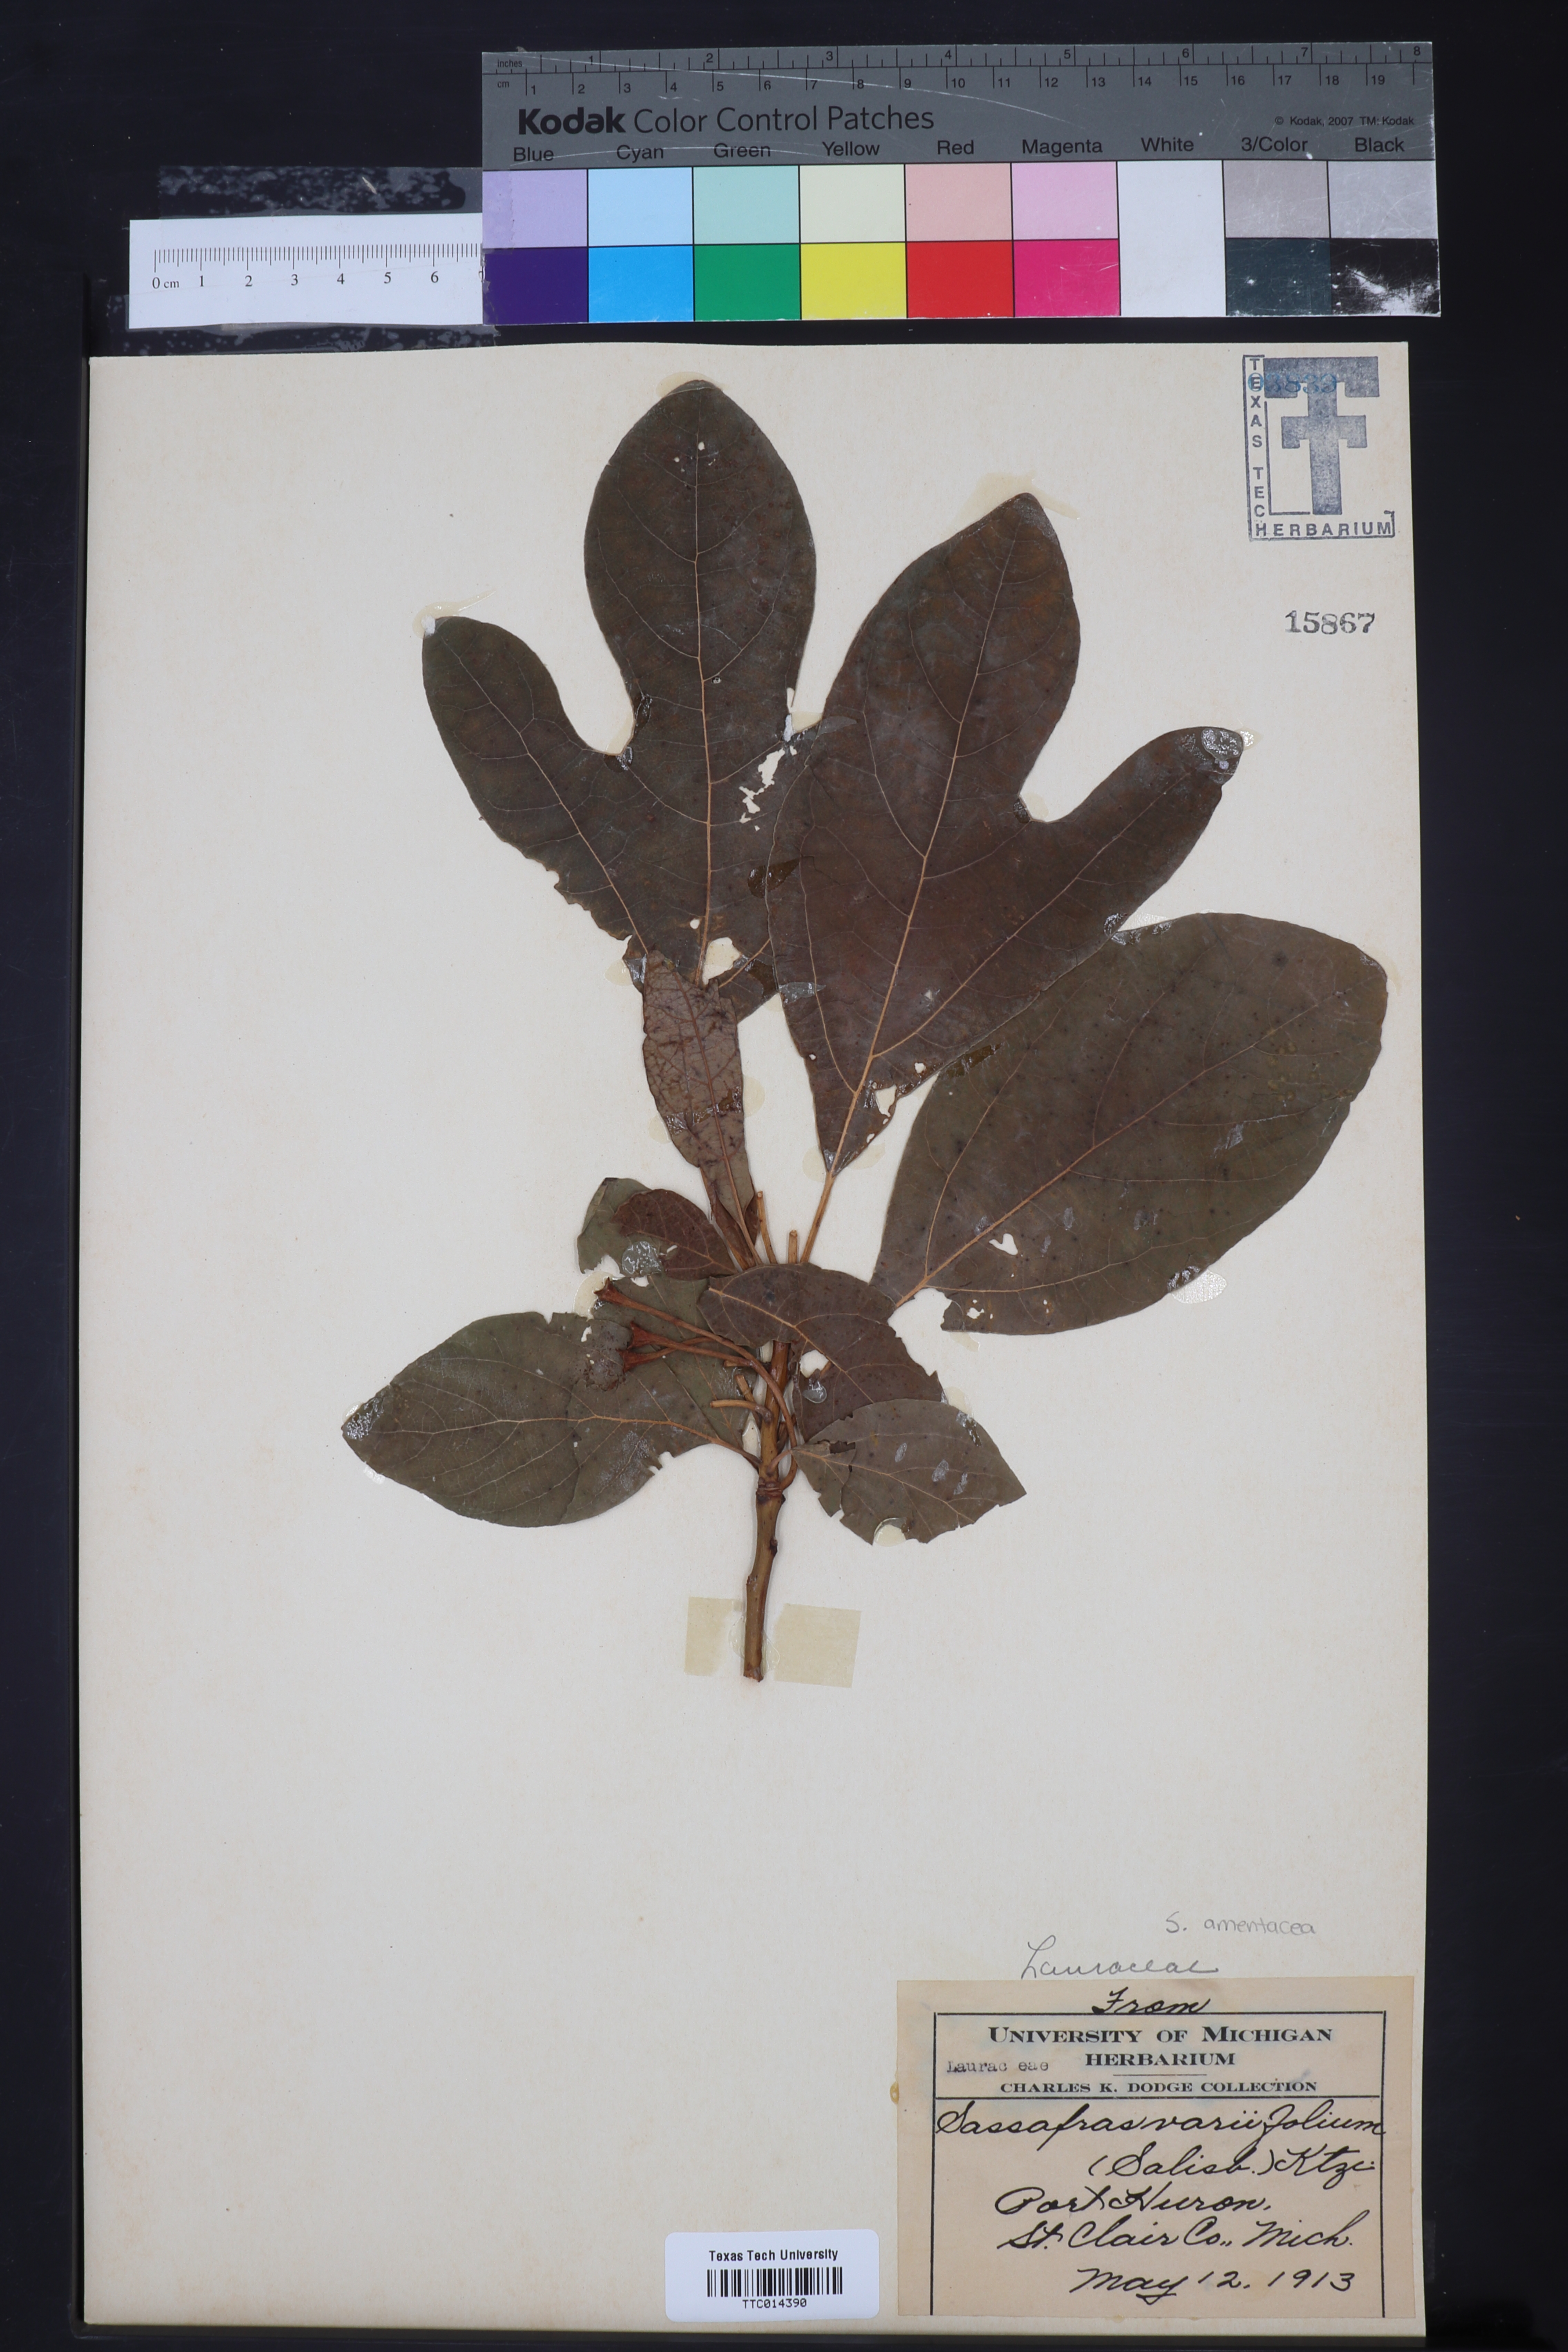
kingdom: Plantae
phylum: Tracheophyta
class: Magnoliopsida
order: Laurales
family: Lauraceae
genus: Sassafras
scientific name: Sassafras albidum
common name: Sassafras
